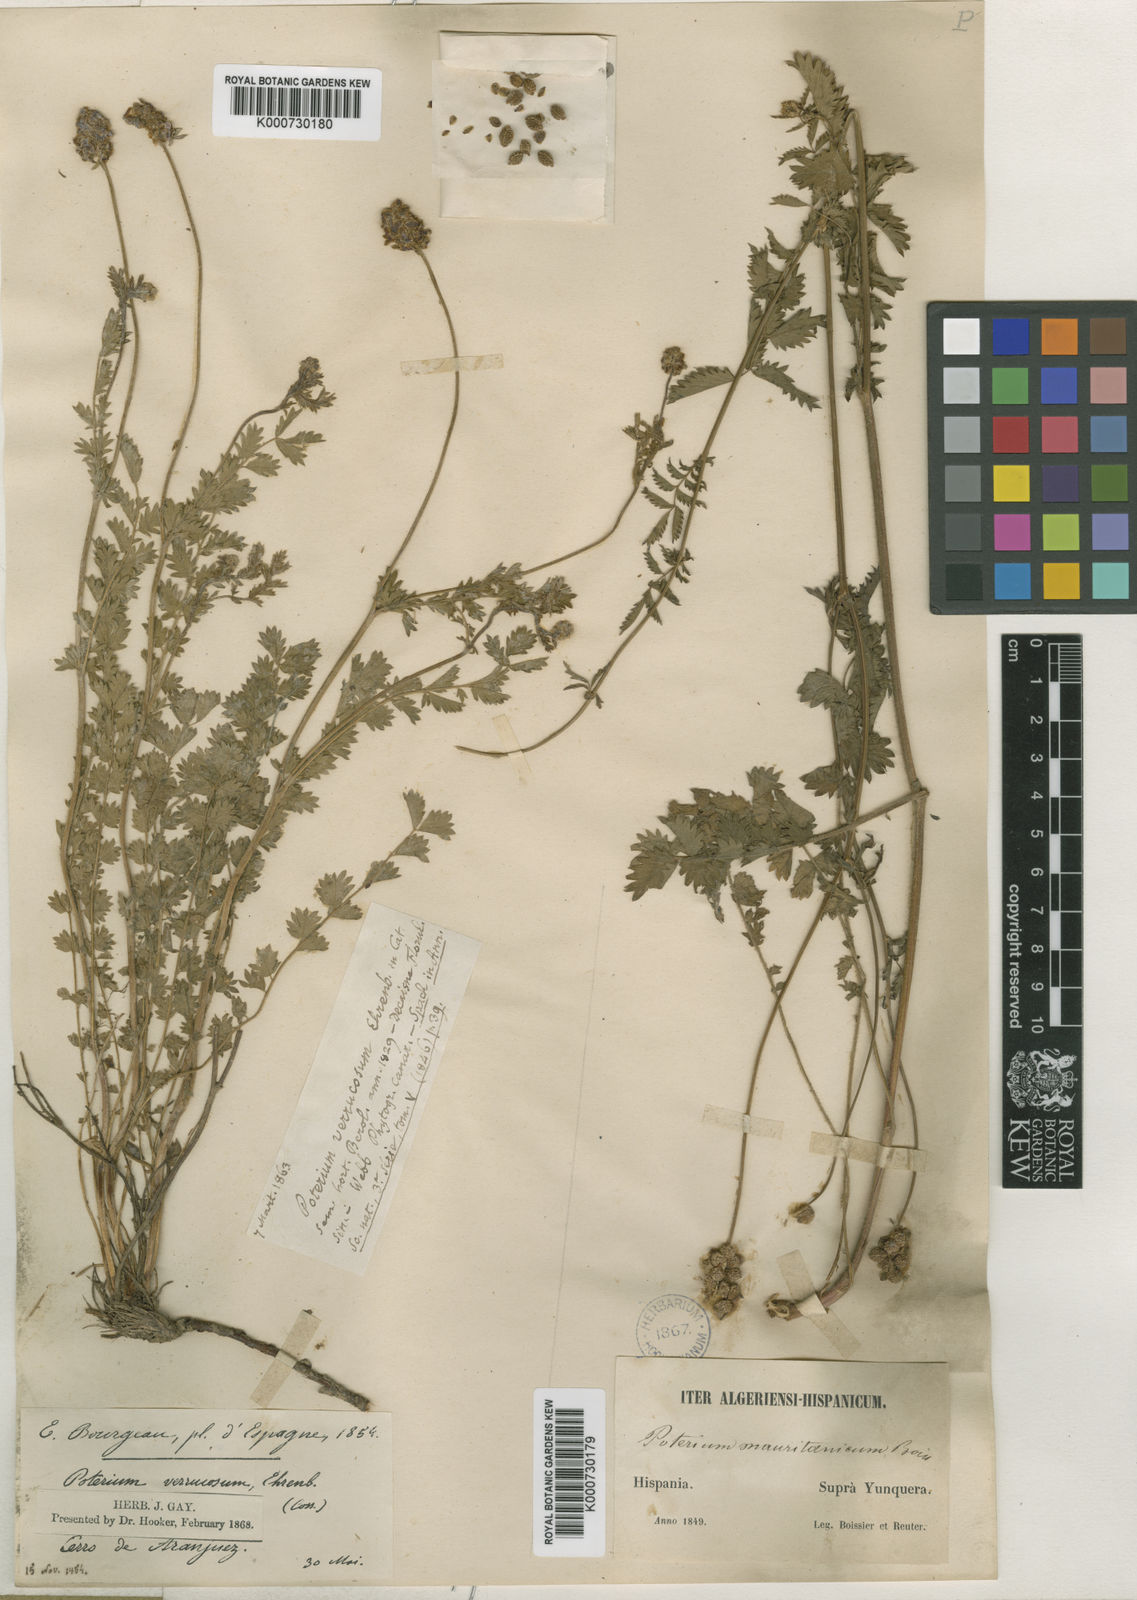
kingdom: Plantae
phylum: Tracheophyta
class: Magnoliopsida
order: Rosales
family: Rosaceae
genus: Sanguisorba
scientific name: Sanguisorba
